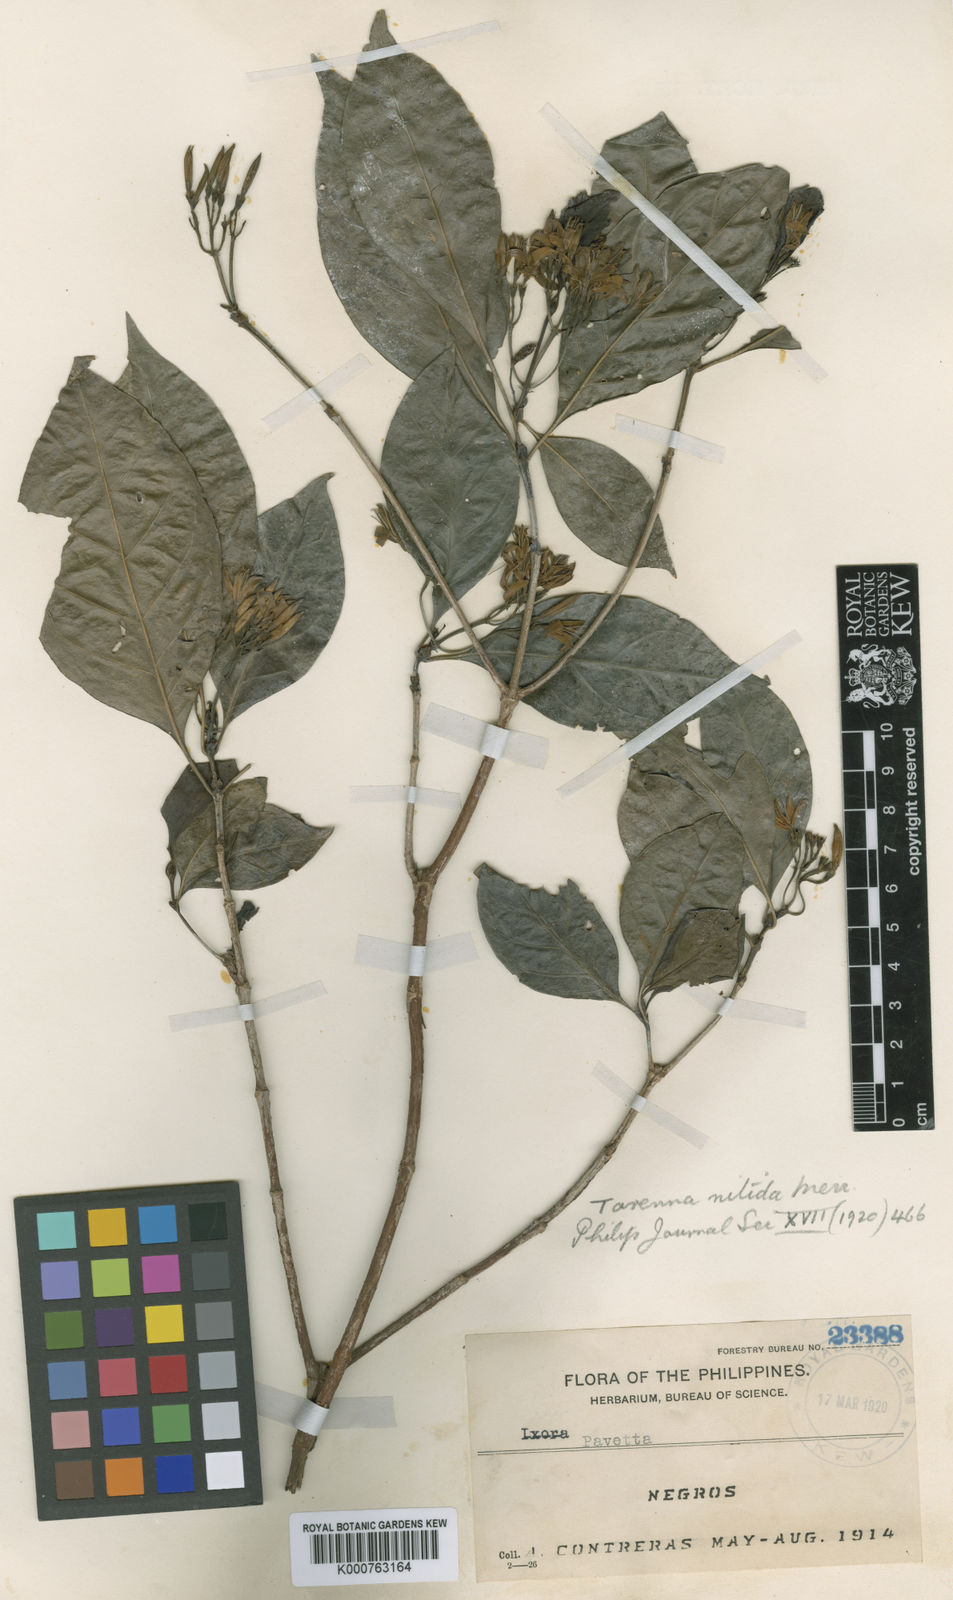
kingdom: Plantae
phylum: Tracheophyta
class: Magnoliopsida
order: Gentianales
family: Rubiaceae
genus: Tarenna
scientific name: Tarenna nitida
